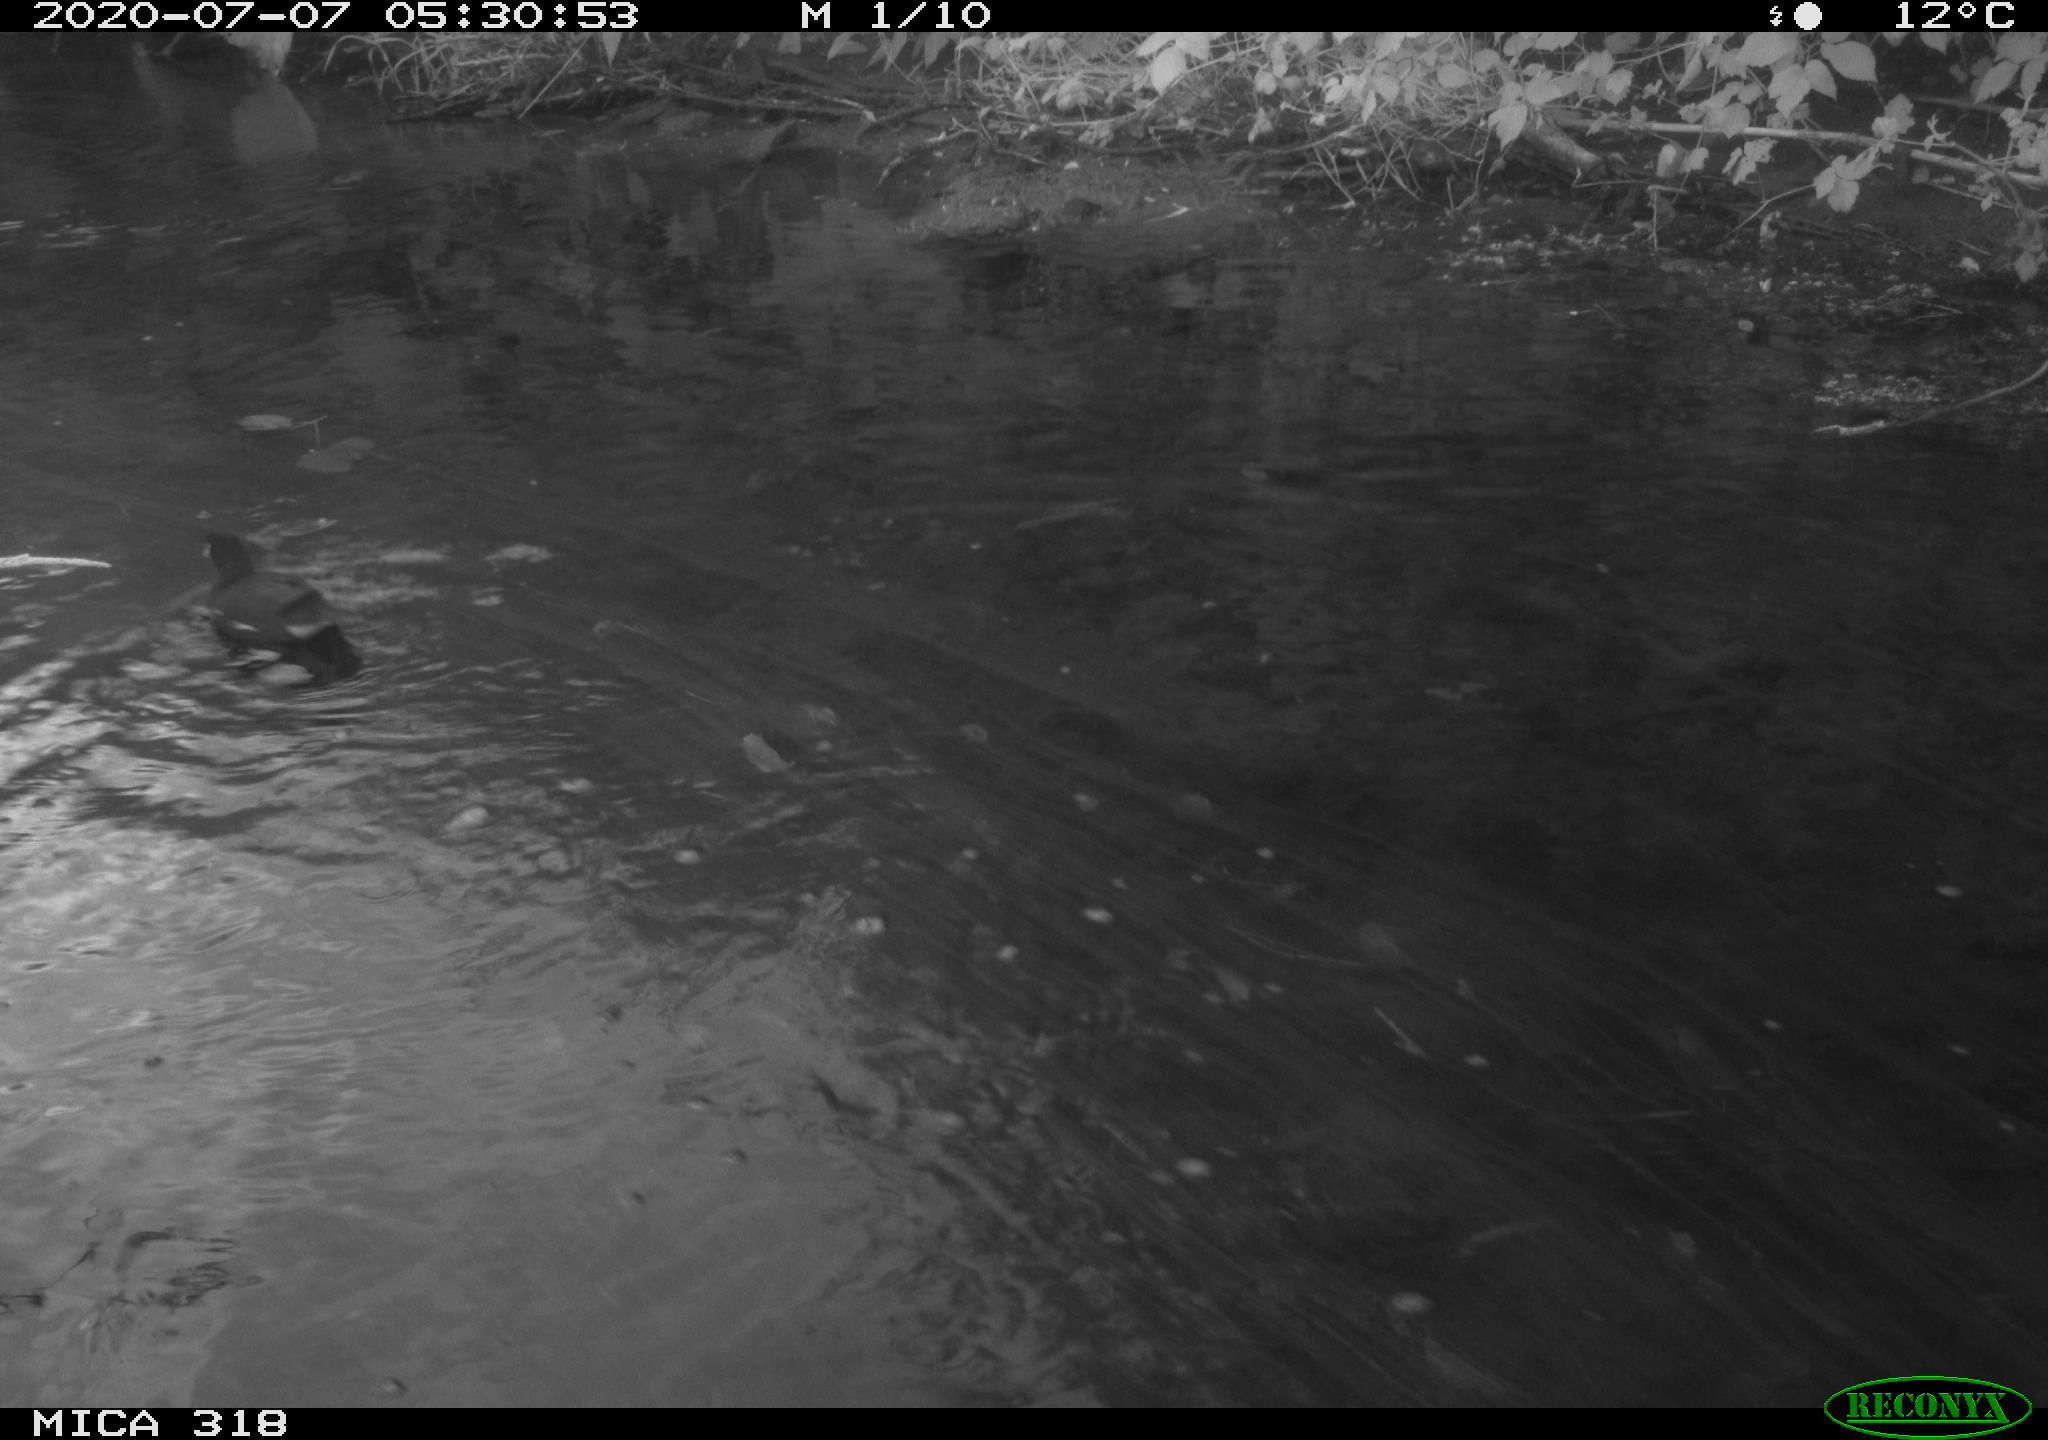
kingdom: Animalia
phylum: Chordata
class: Aves
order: Gruiformes
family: Rallidae
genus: Gallinula
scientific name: Gallinula chloropus
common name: Common moorhen
